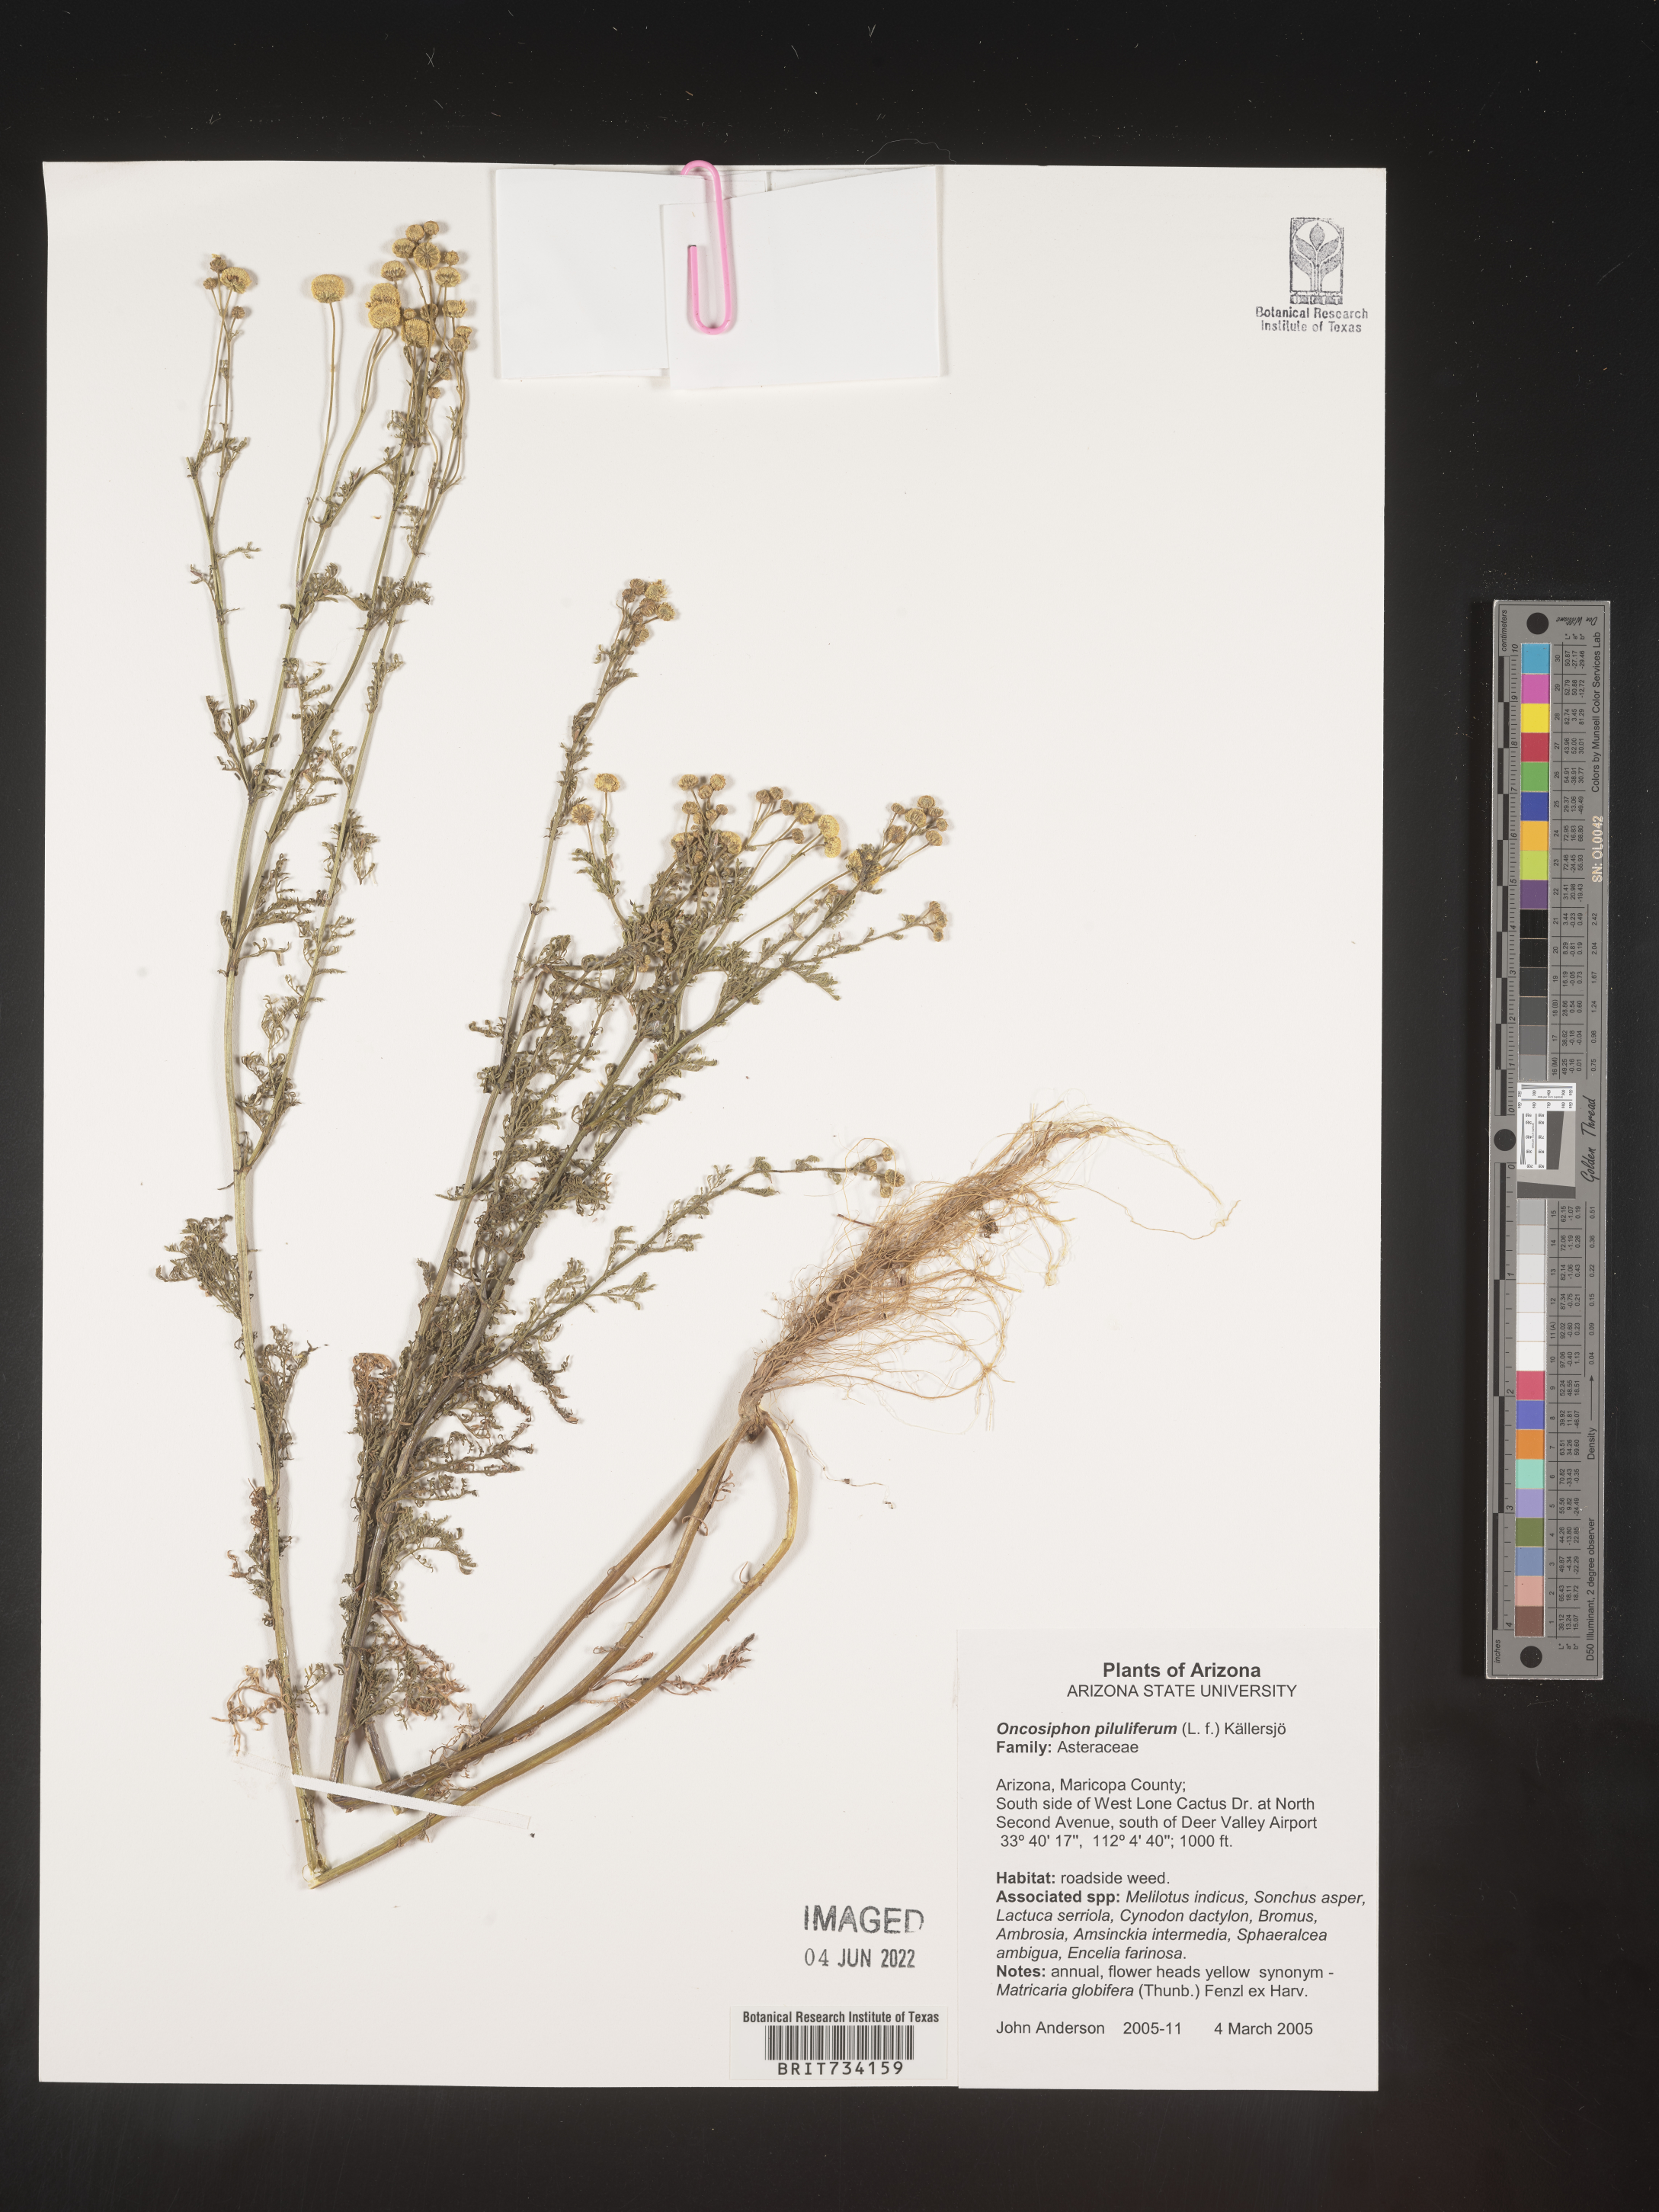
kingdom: Plantae
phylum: Tracheophyta
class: Magnoliopsida
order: Asterales
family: Asteraceae
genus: Oncosiphon
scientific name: Oncosiphon
